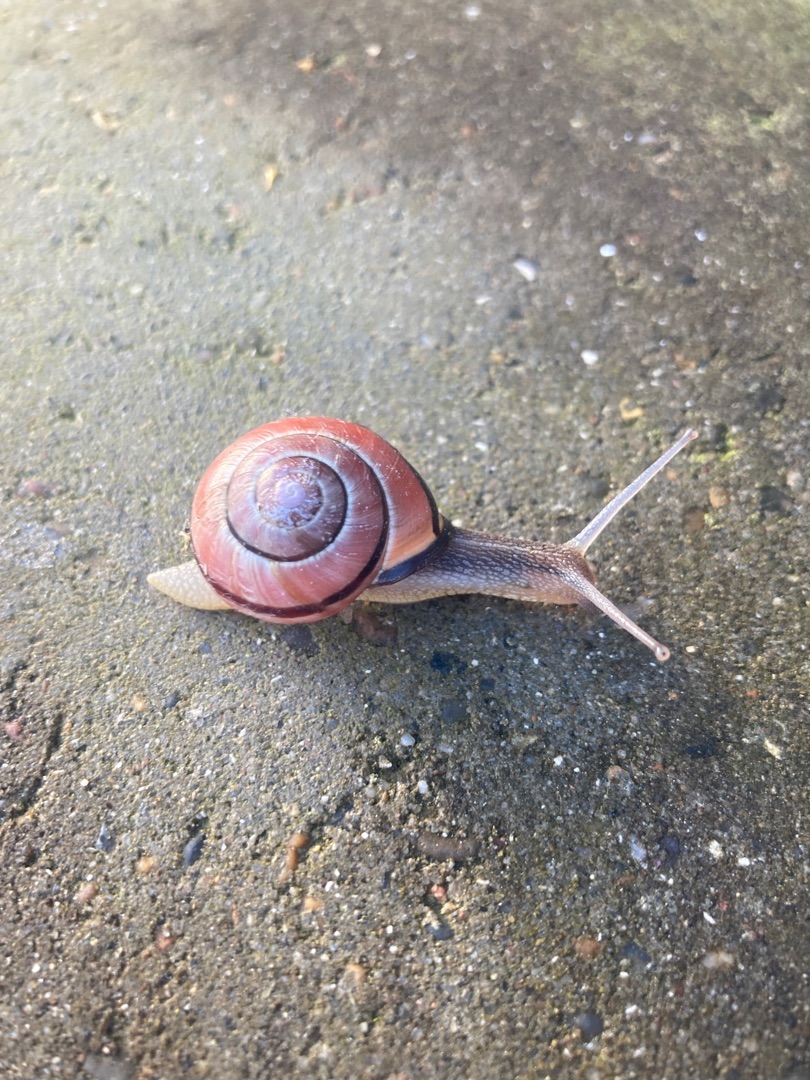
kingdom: Animalia
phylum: Mollusca
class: Gastropoda
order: Stylommatophora
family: Helicidae
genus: Cepaea
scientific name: Cepaea nemoralis
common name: Lundsnegl
